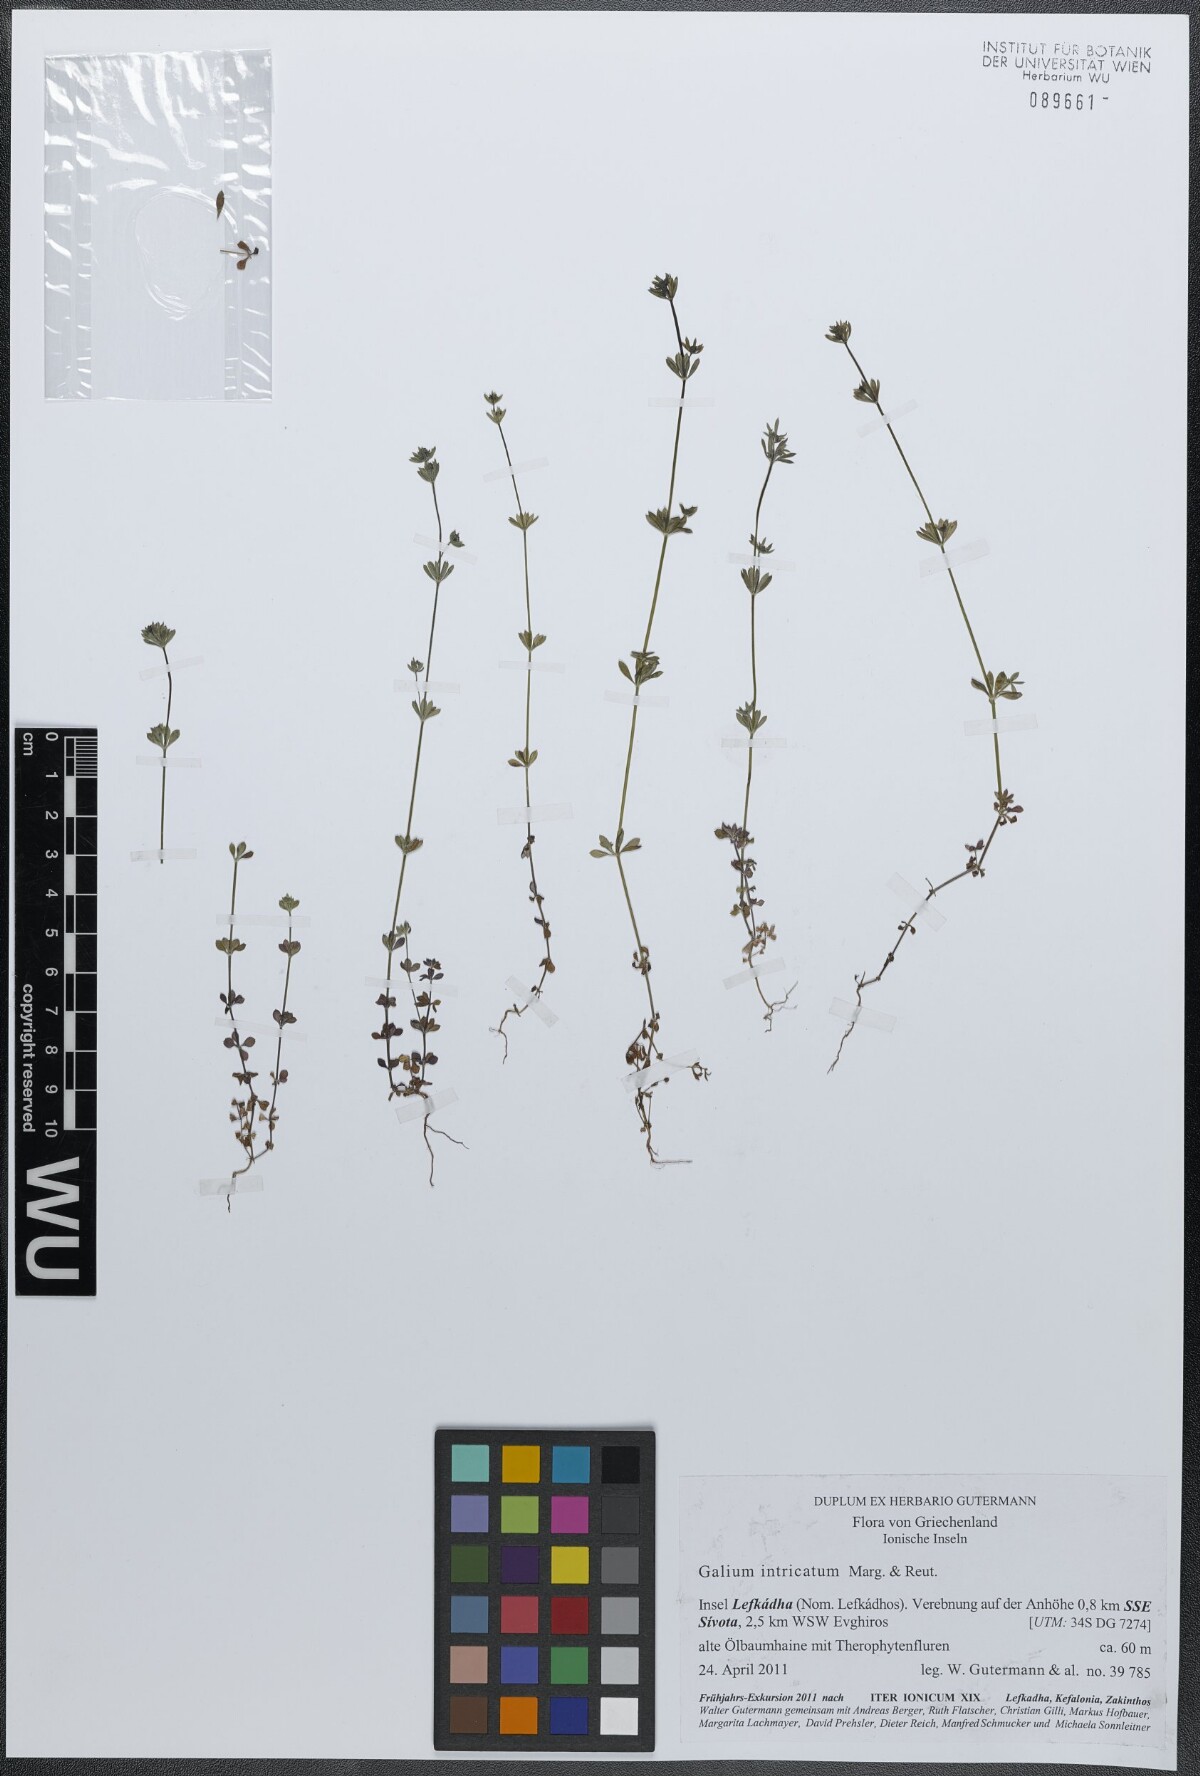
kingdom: Plantae
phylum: Tracheophyta
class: Magnoliopsida
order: Gentianales
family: Rubiaceae
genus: Galium
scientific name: Galium intricatum
